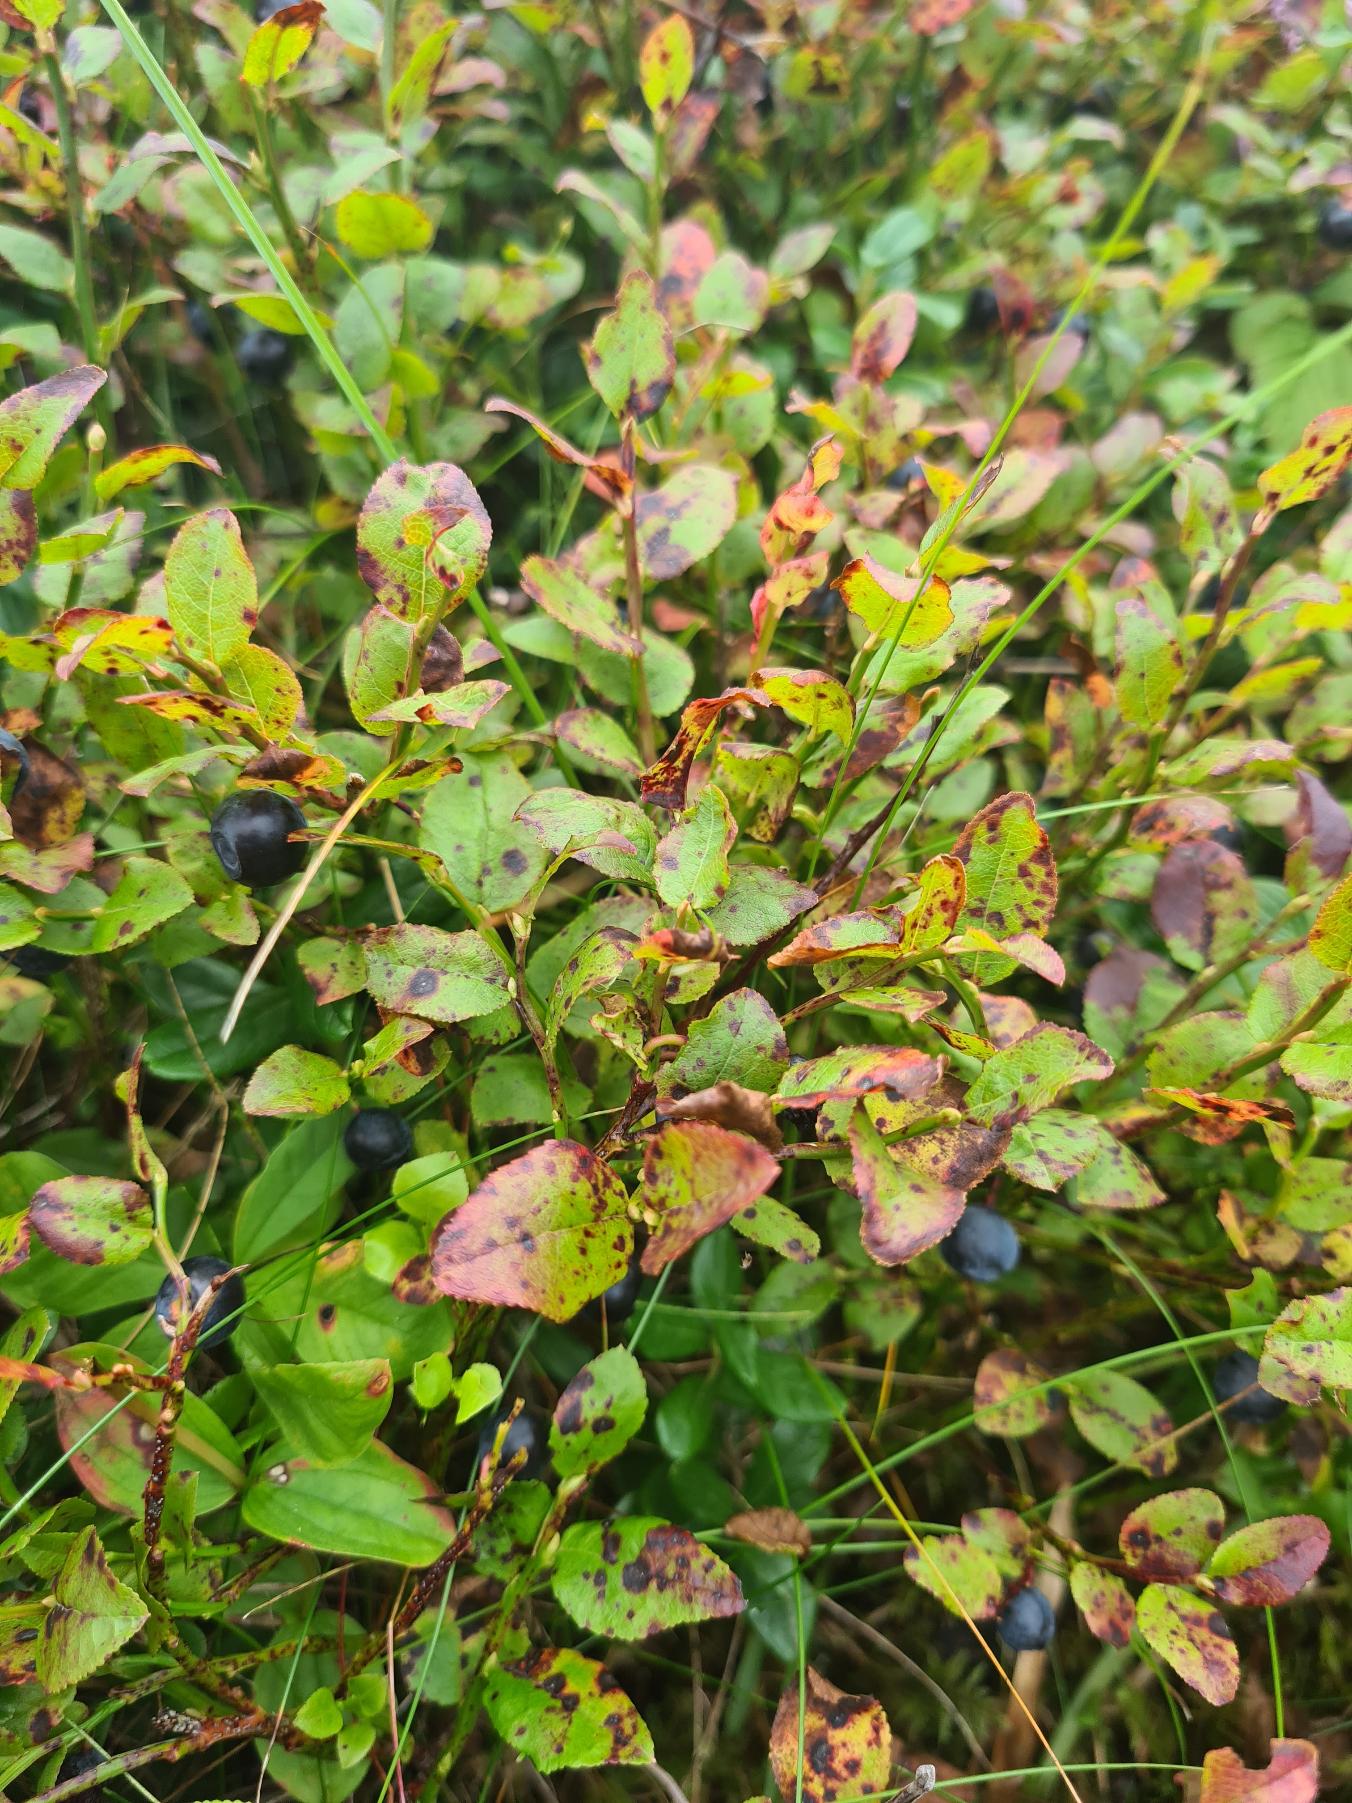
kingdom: Plantae
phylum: Tracheophyta
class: Magnoliopsida
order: Ericales
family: Ericaceae
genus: Vaccinium
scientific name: Vaccinium myrtillus
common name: Blåbær
